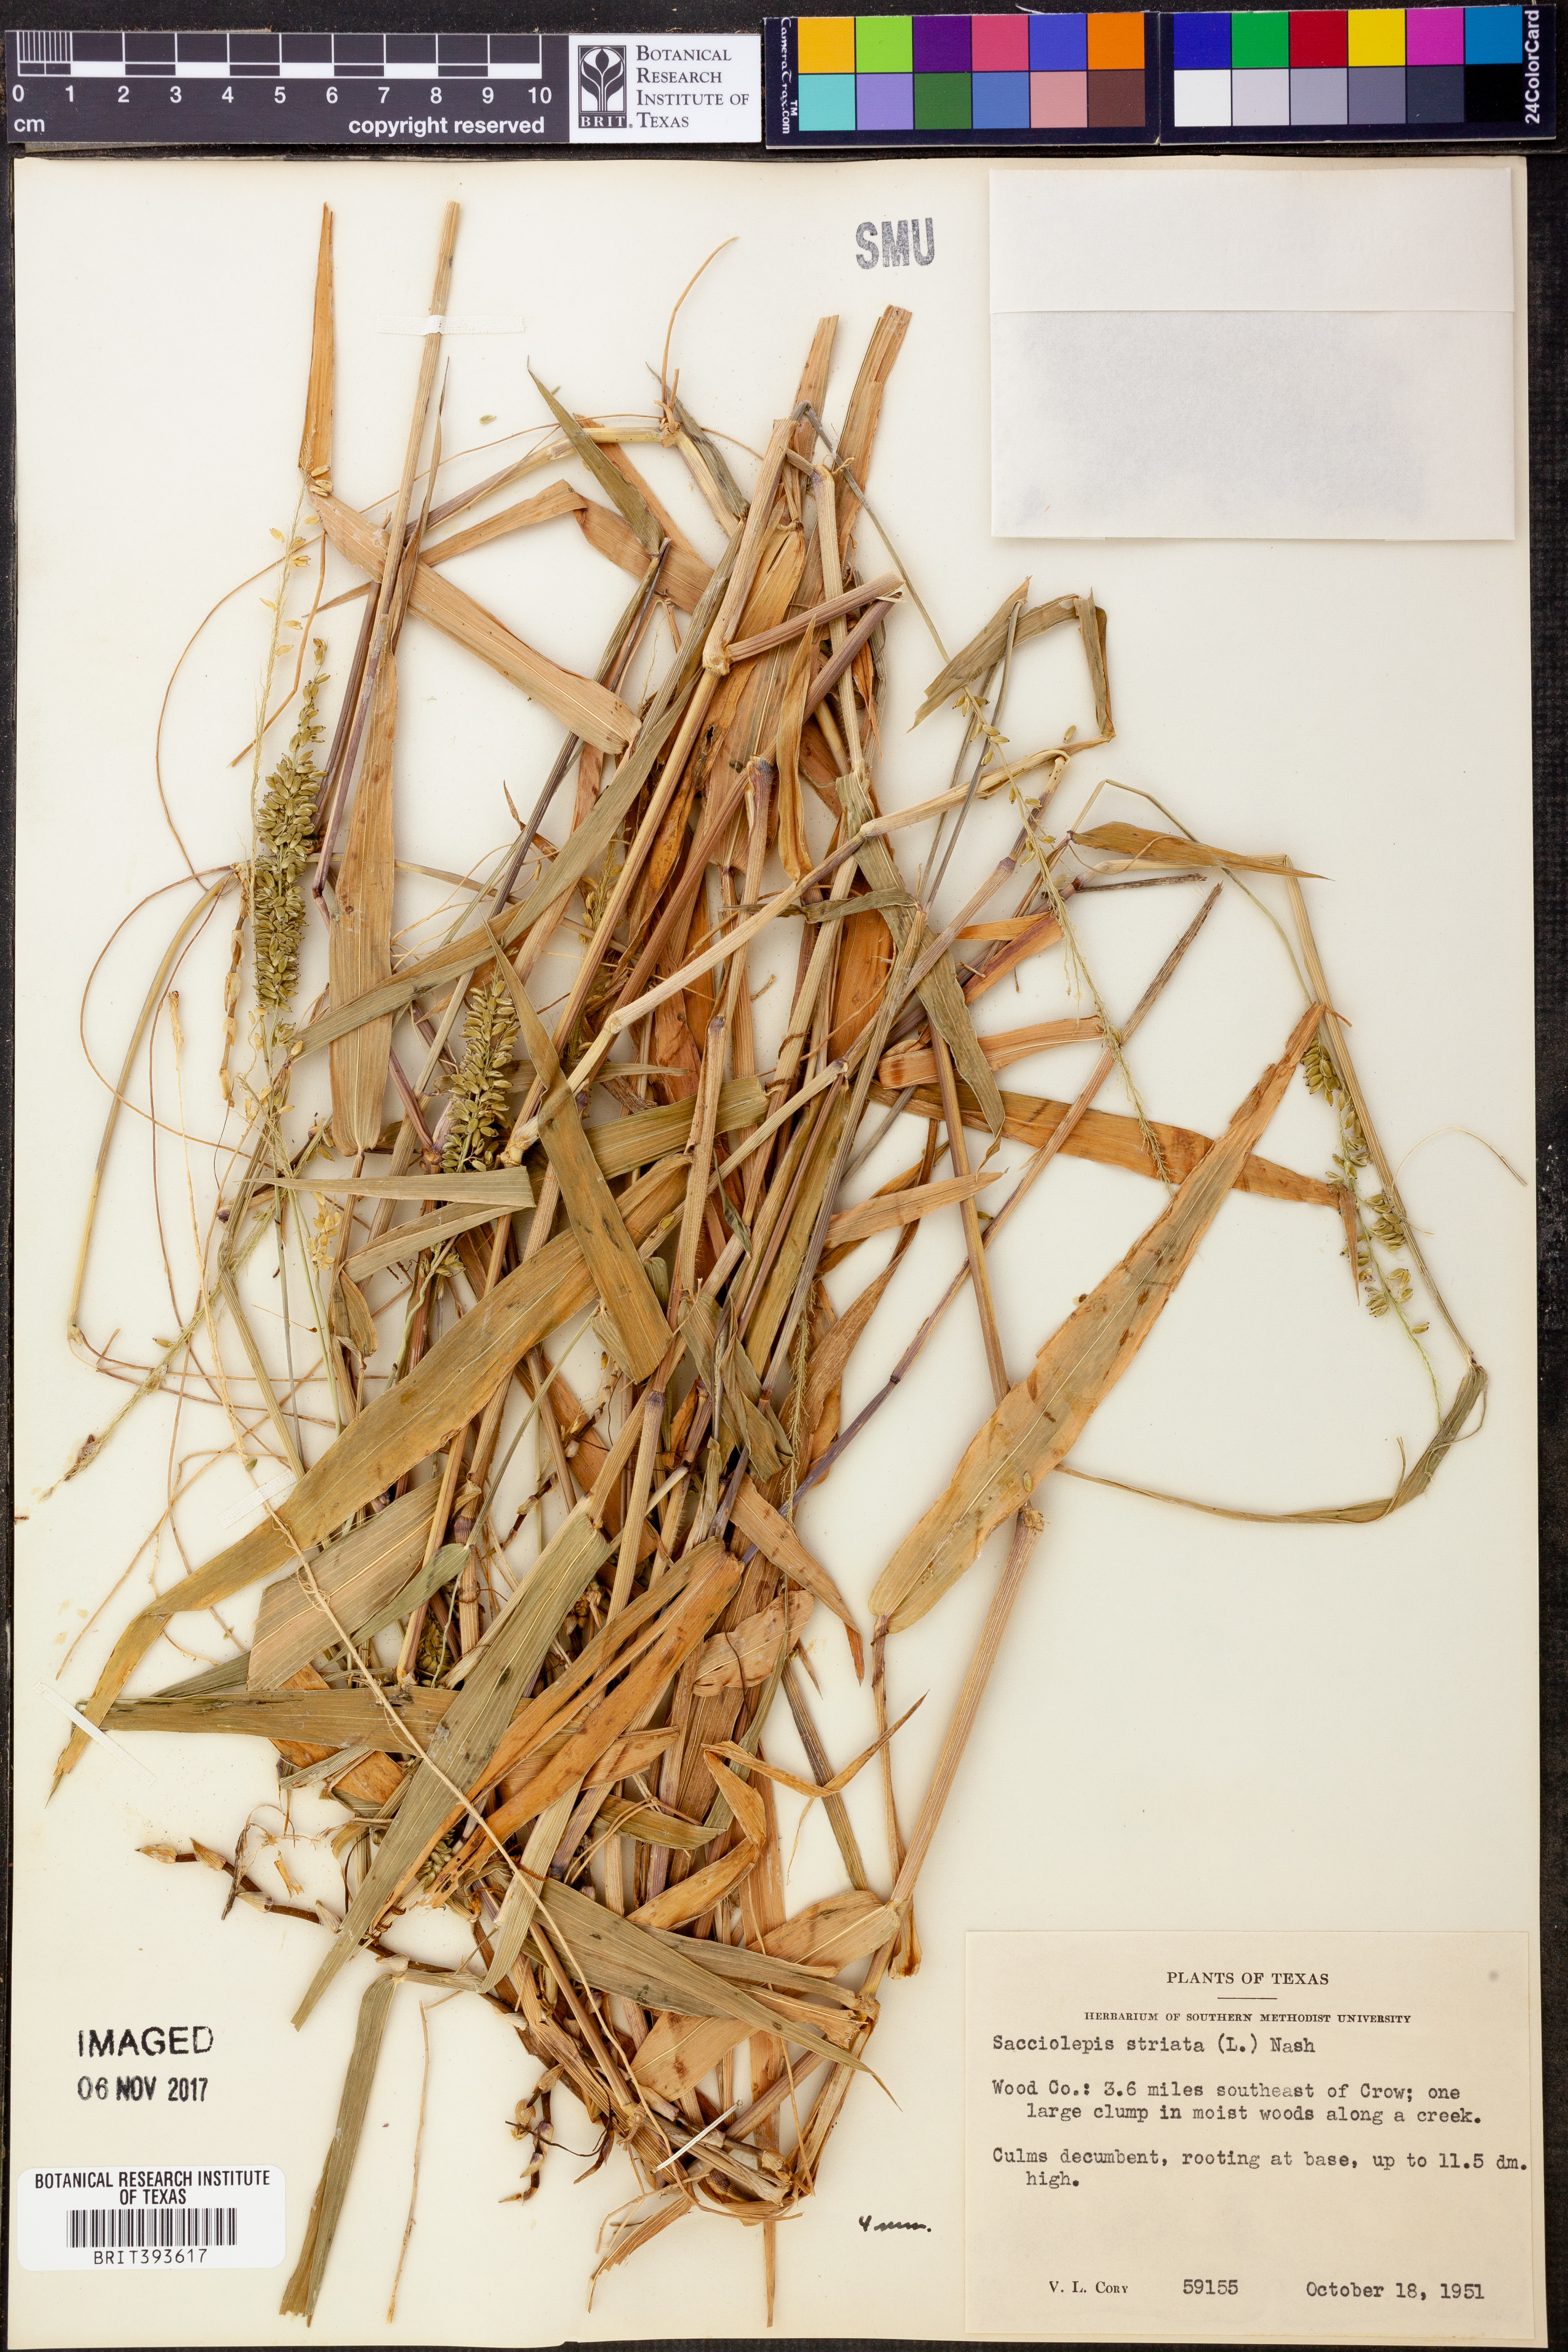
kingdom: Plantae
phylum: Tracheophyta
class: Liliopsida
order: Poales
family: Poaceae
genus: Sacciolepis
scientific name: Sacciolepis striata
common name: American cupscale
